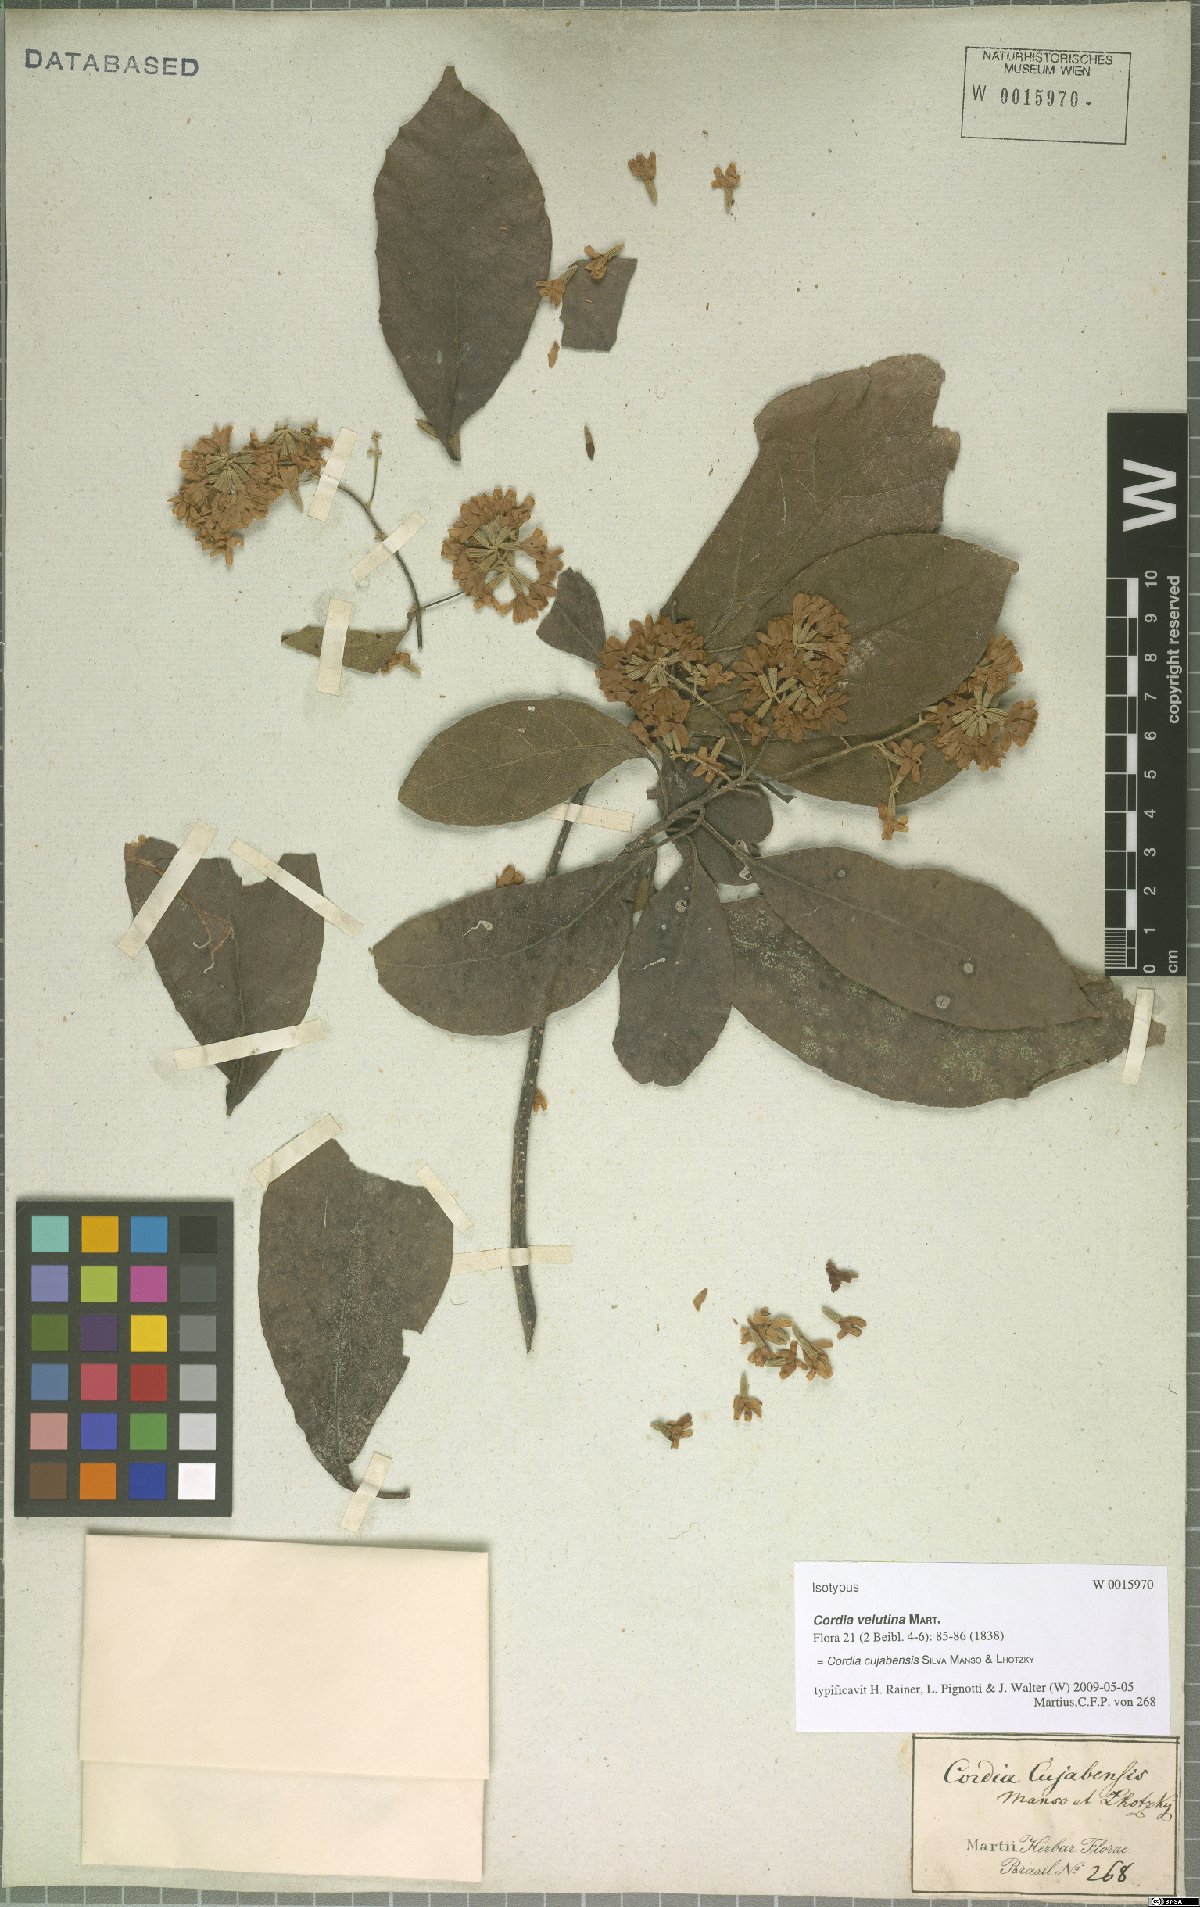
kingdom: Plantae
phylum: Tracheophyta
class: Magnoliopsida
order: Boraginales
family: Cordiaceae
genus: Cordia
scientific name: Cordia alliodora
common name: Spanish elm
